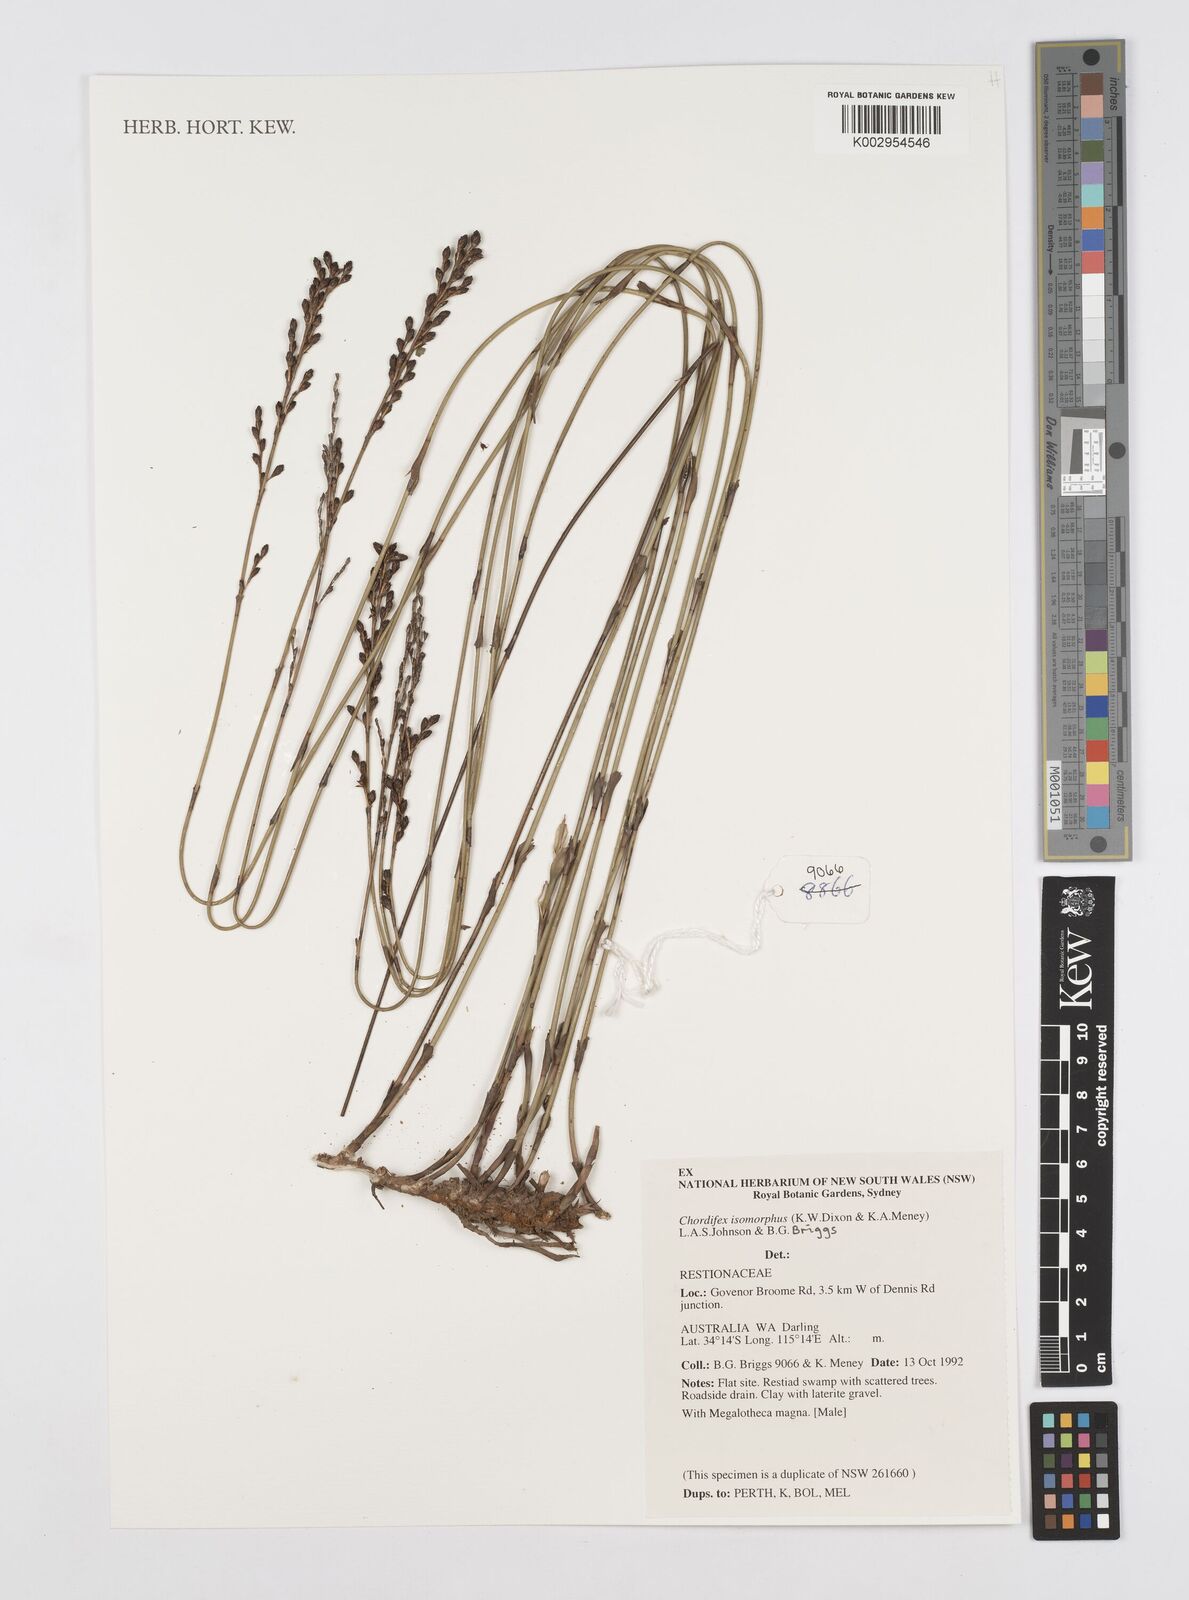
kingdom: Plantae
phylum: Tracheophyta
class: Liliopsida
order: Poales
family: Restionaceae
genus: Chordifex
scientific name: Chordifex isomorphus
